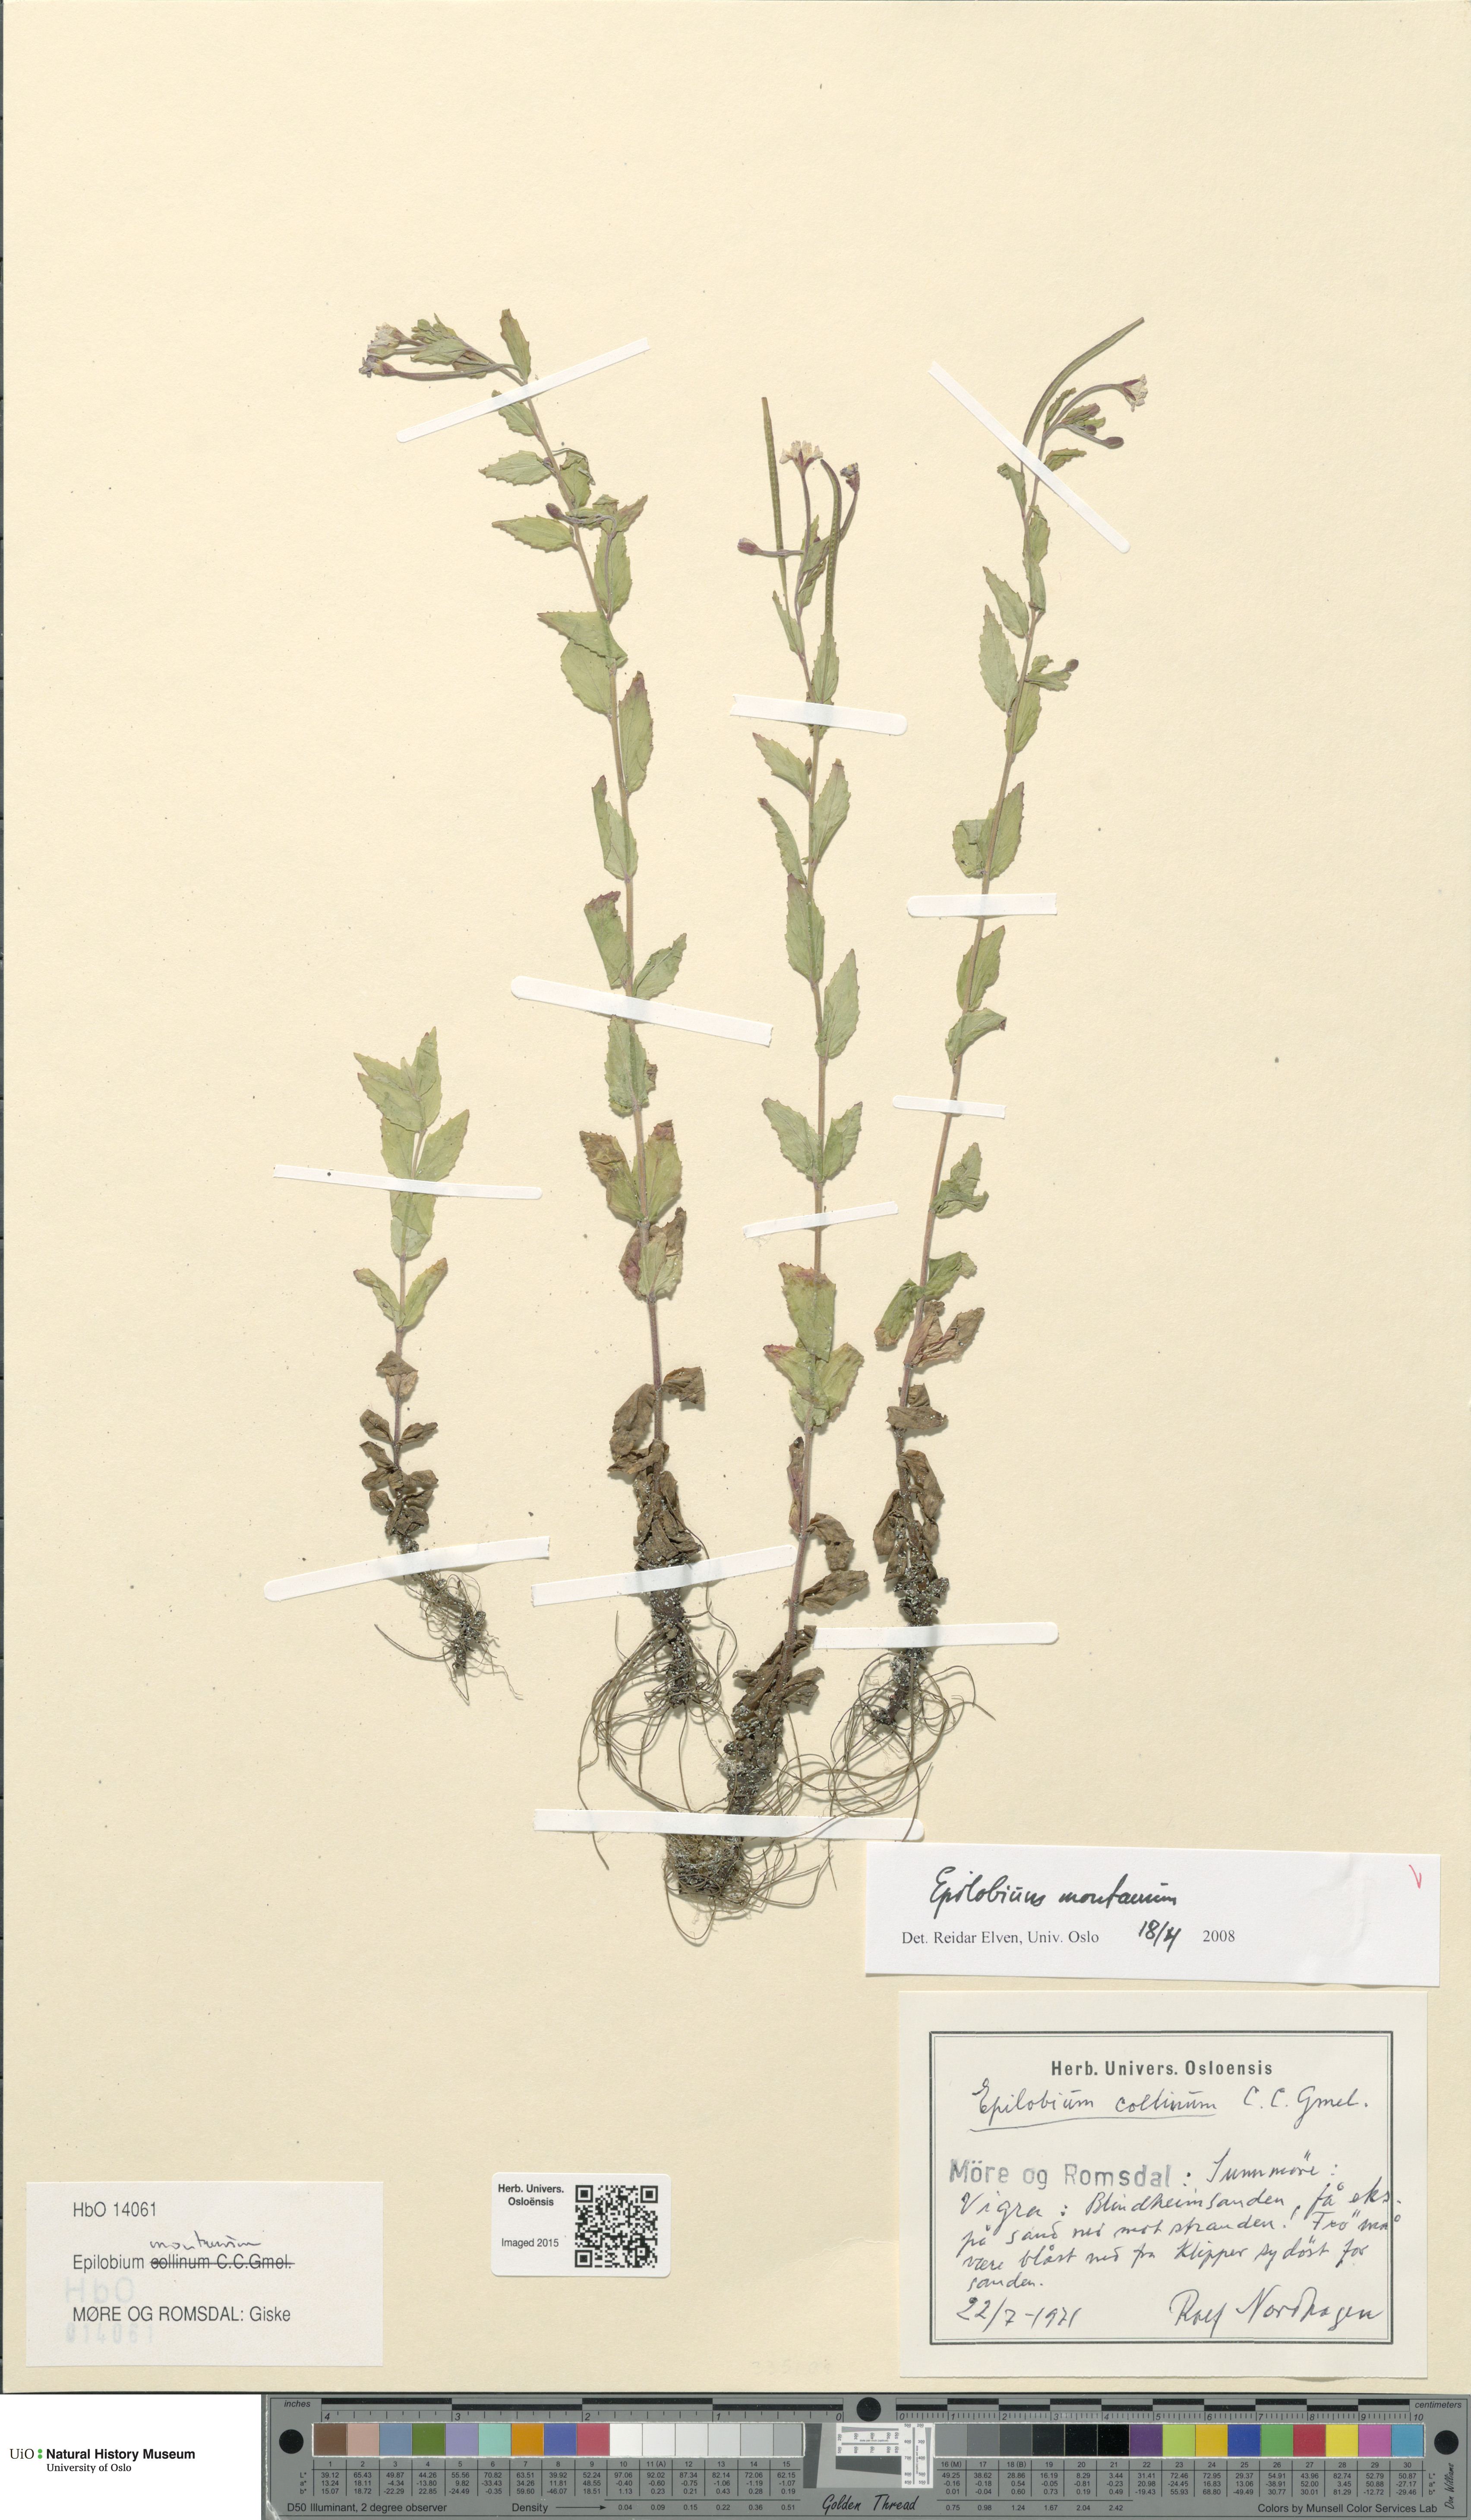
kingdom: Plantae
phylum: Tracheophyta
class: Magnoliopsida
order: Myrtales
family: Onagraceae
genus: Epilobium
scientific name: Epilobium montanum
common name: Broad-leaved willowherb
